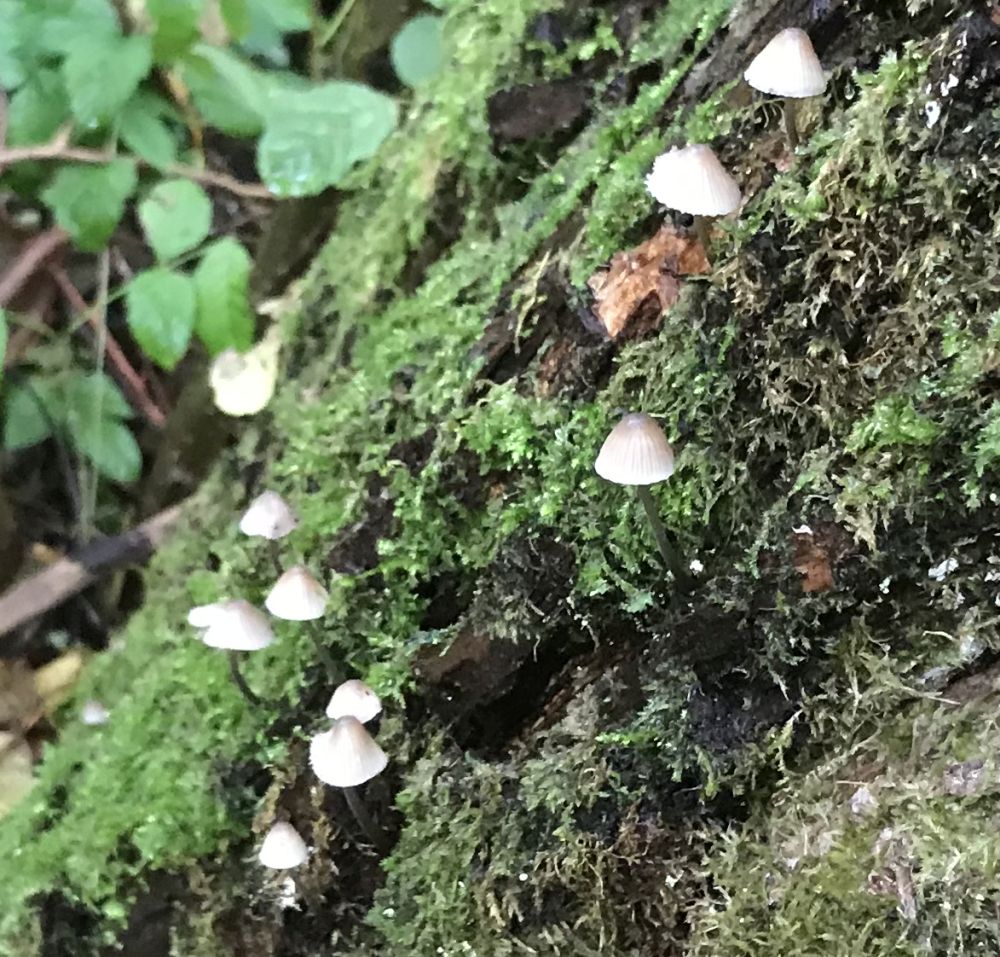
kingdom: Fungi
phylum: Basidiomycota
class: Agaricomycetes
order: Agaricales
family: Mycenaceae
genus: Mycena
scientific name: Mycena arcangeliana
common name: oliven-huesvamp
